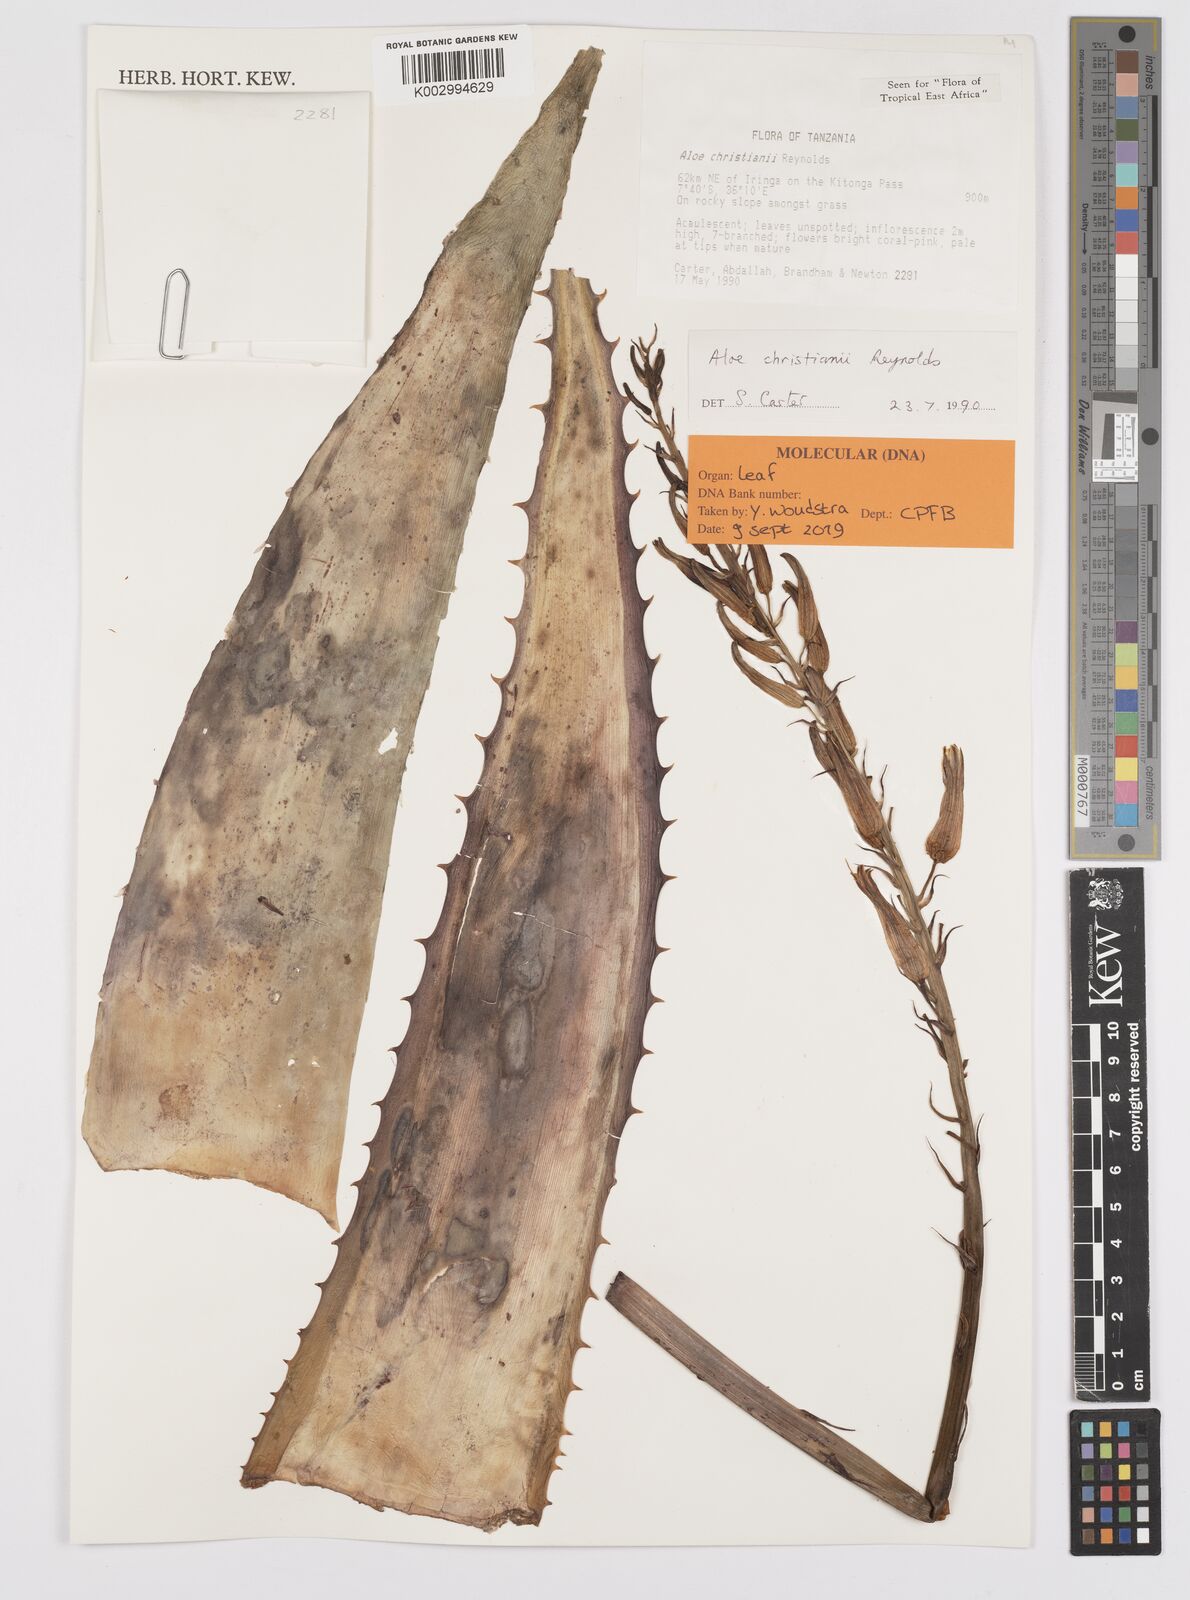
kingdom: Plantae
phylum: Tracheophyta
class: Liliopsida
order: Asparagales
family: Asphodelaceae
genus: Aloe
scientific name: Aloe christianii
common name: Basil christian's aloe
